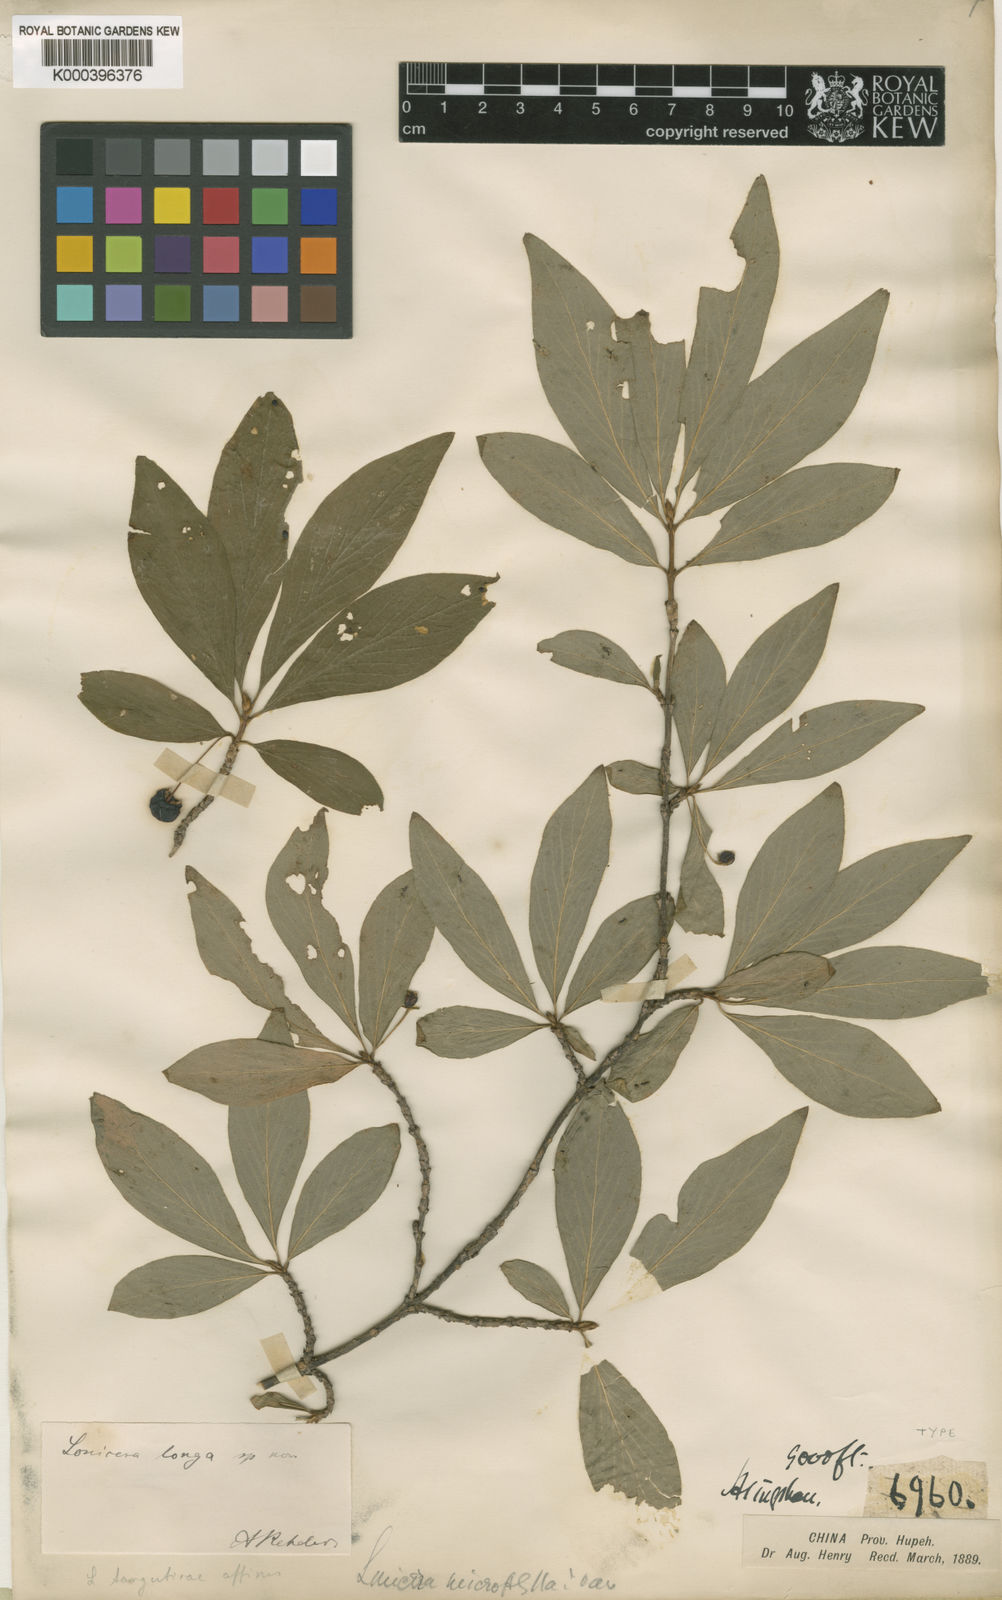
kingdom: Plantae
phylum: Tracheophyta
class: Magnoliopsida
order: Dipsacales
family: Caprifoliaceae
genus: Lonicera
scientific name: Lonicera tangutica
